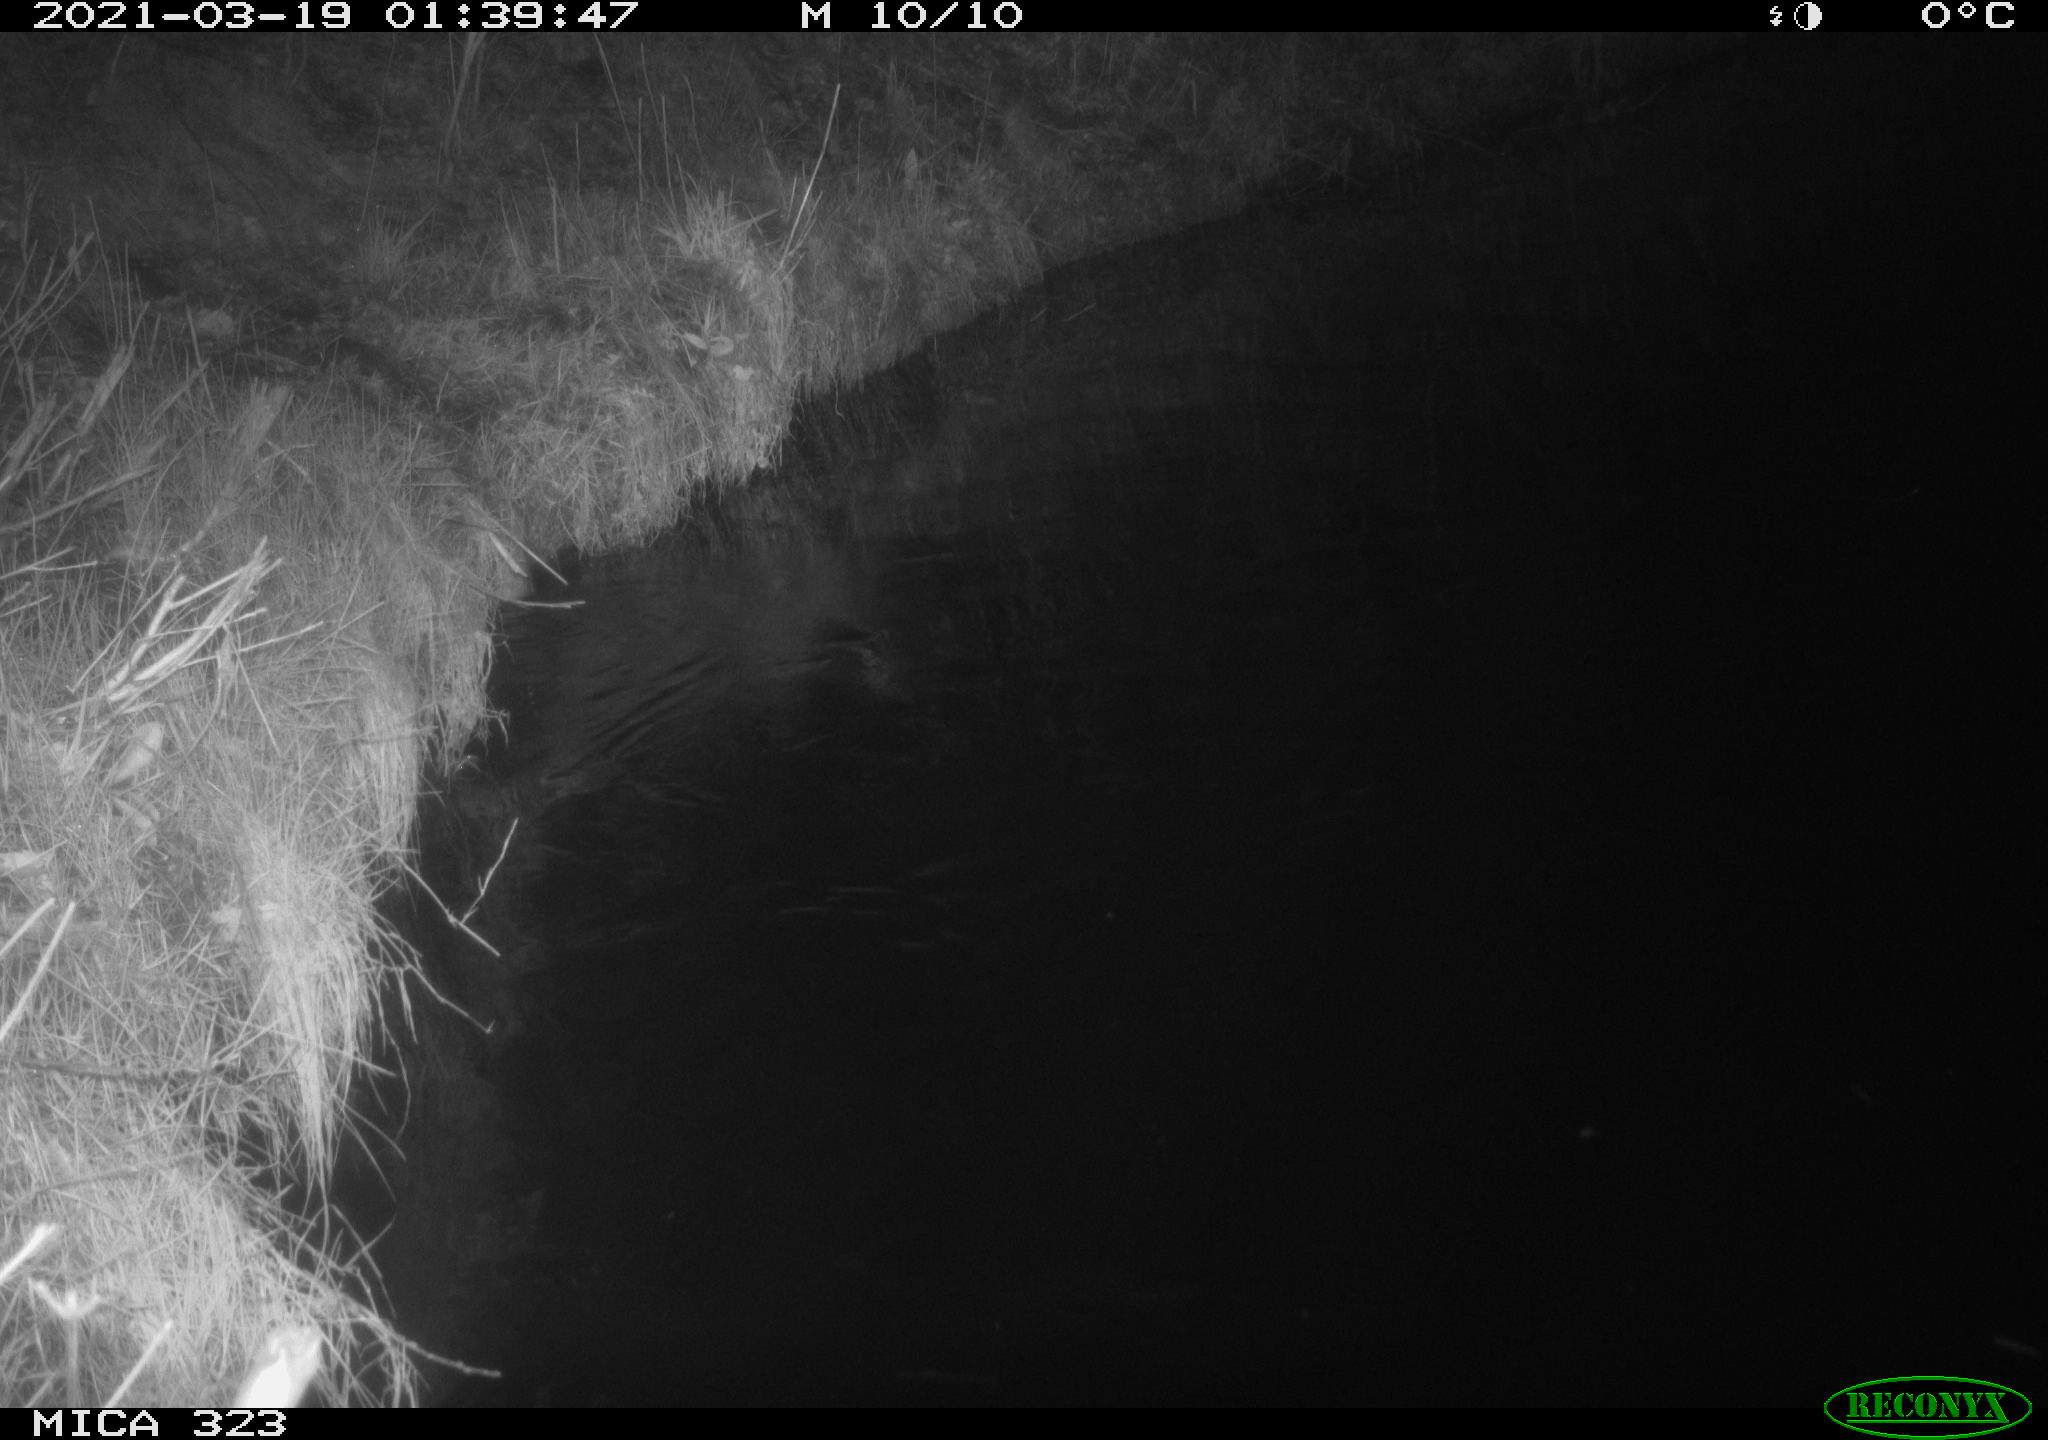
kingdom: Animalia
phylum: Chordata
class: Mammalia
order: Rodentia
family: Cricetidae
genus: Ondatra
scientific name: Ondatra zibethicus
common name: Muskrat
